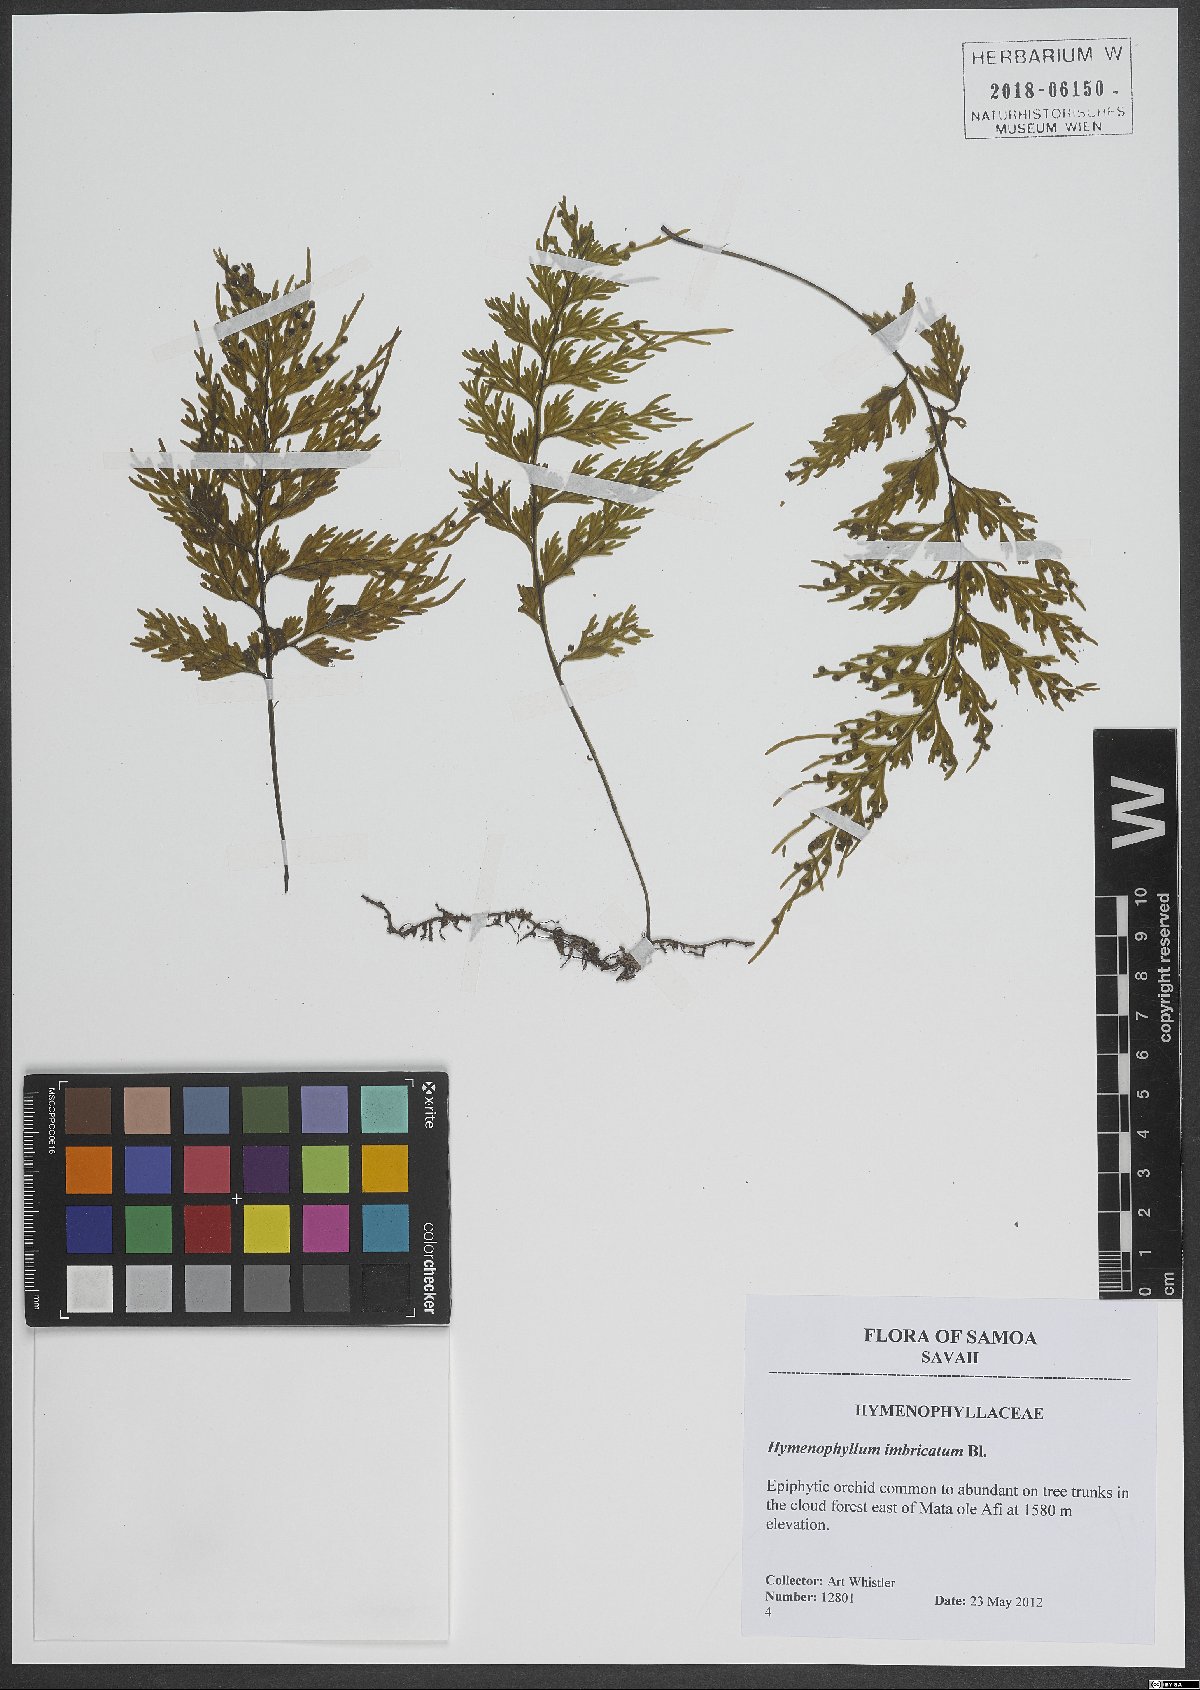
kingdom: Plantae
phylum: Tracheophyta
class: Polypodiopsida
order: Hymenophyllales
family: Hymenophyllaceae
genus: Hymenophyllum
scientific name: Hymenophyllum imbricatum
